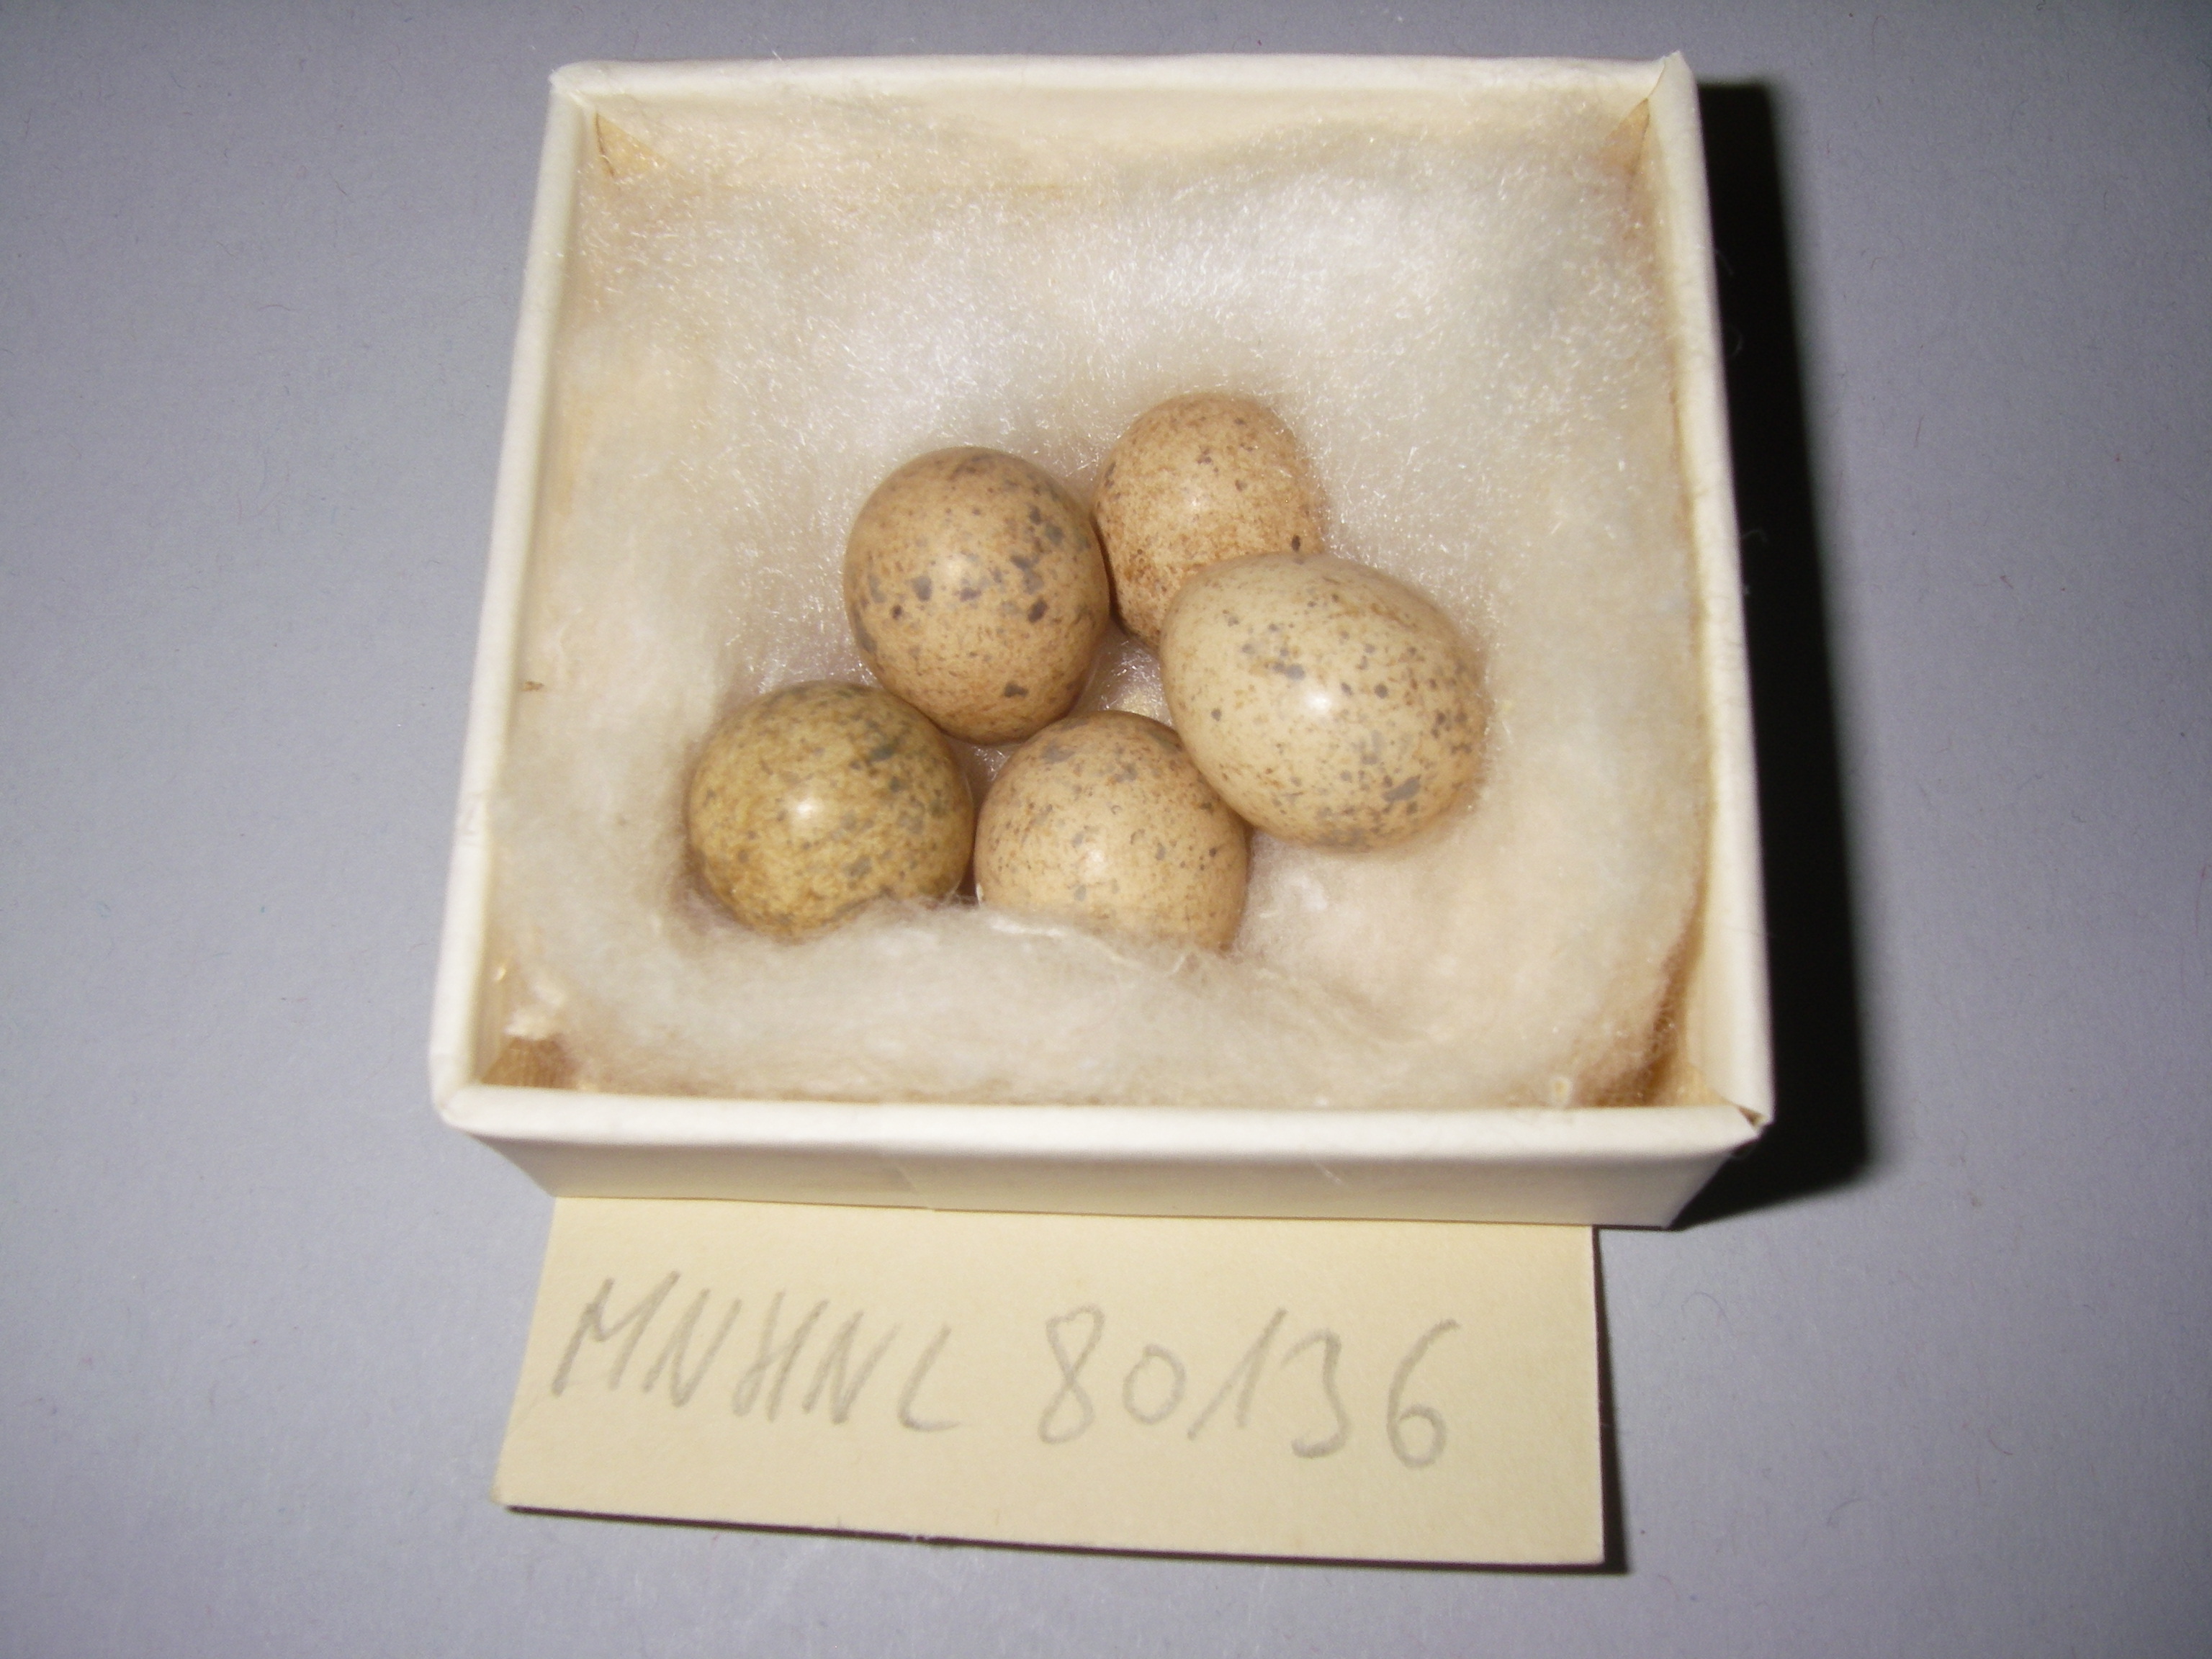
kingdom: Animalia
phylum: Chordata
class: Aves
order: Passeriformes
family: Sylviidae
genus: Sylvia
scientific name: Sylvia communis
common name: Common whitethroat
